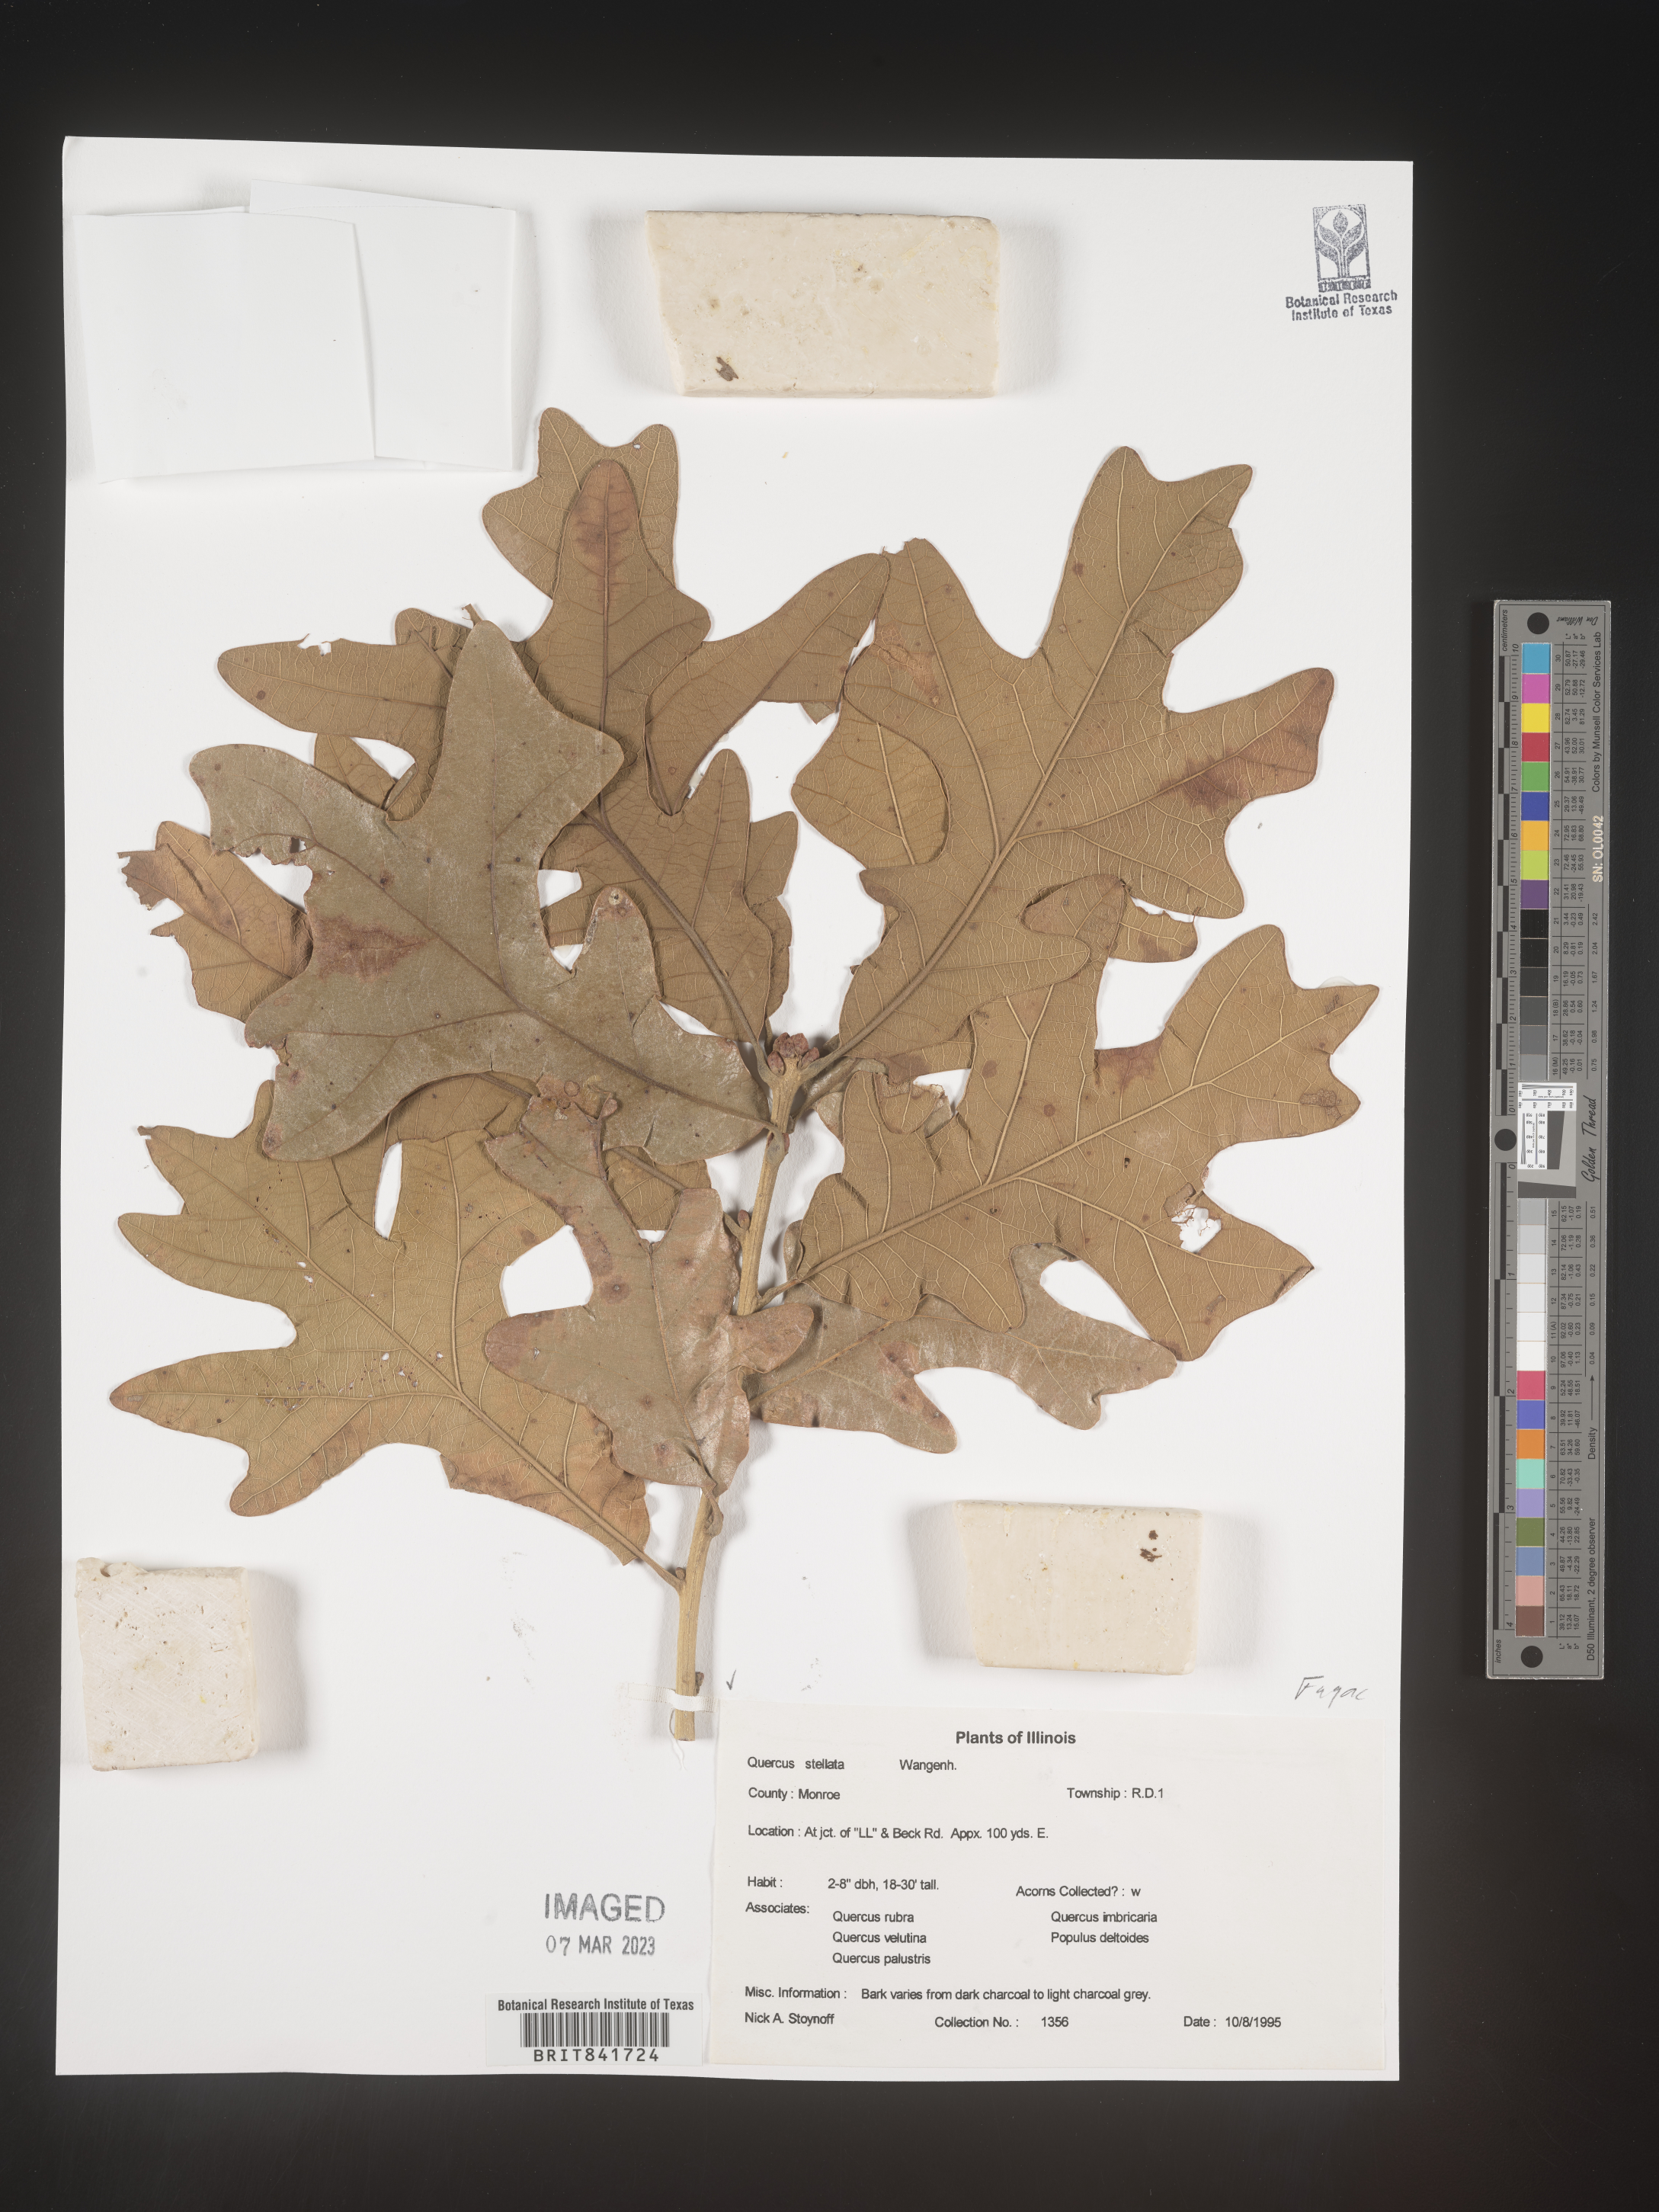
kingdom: Plantae
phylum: Tracheophyta
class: Magnoliopsida
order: Fagales
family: Fagaceae
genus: Quercus
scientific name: Quercus stellata
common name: Post oak
